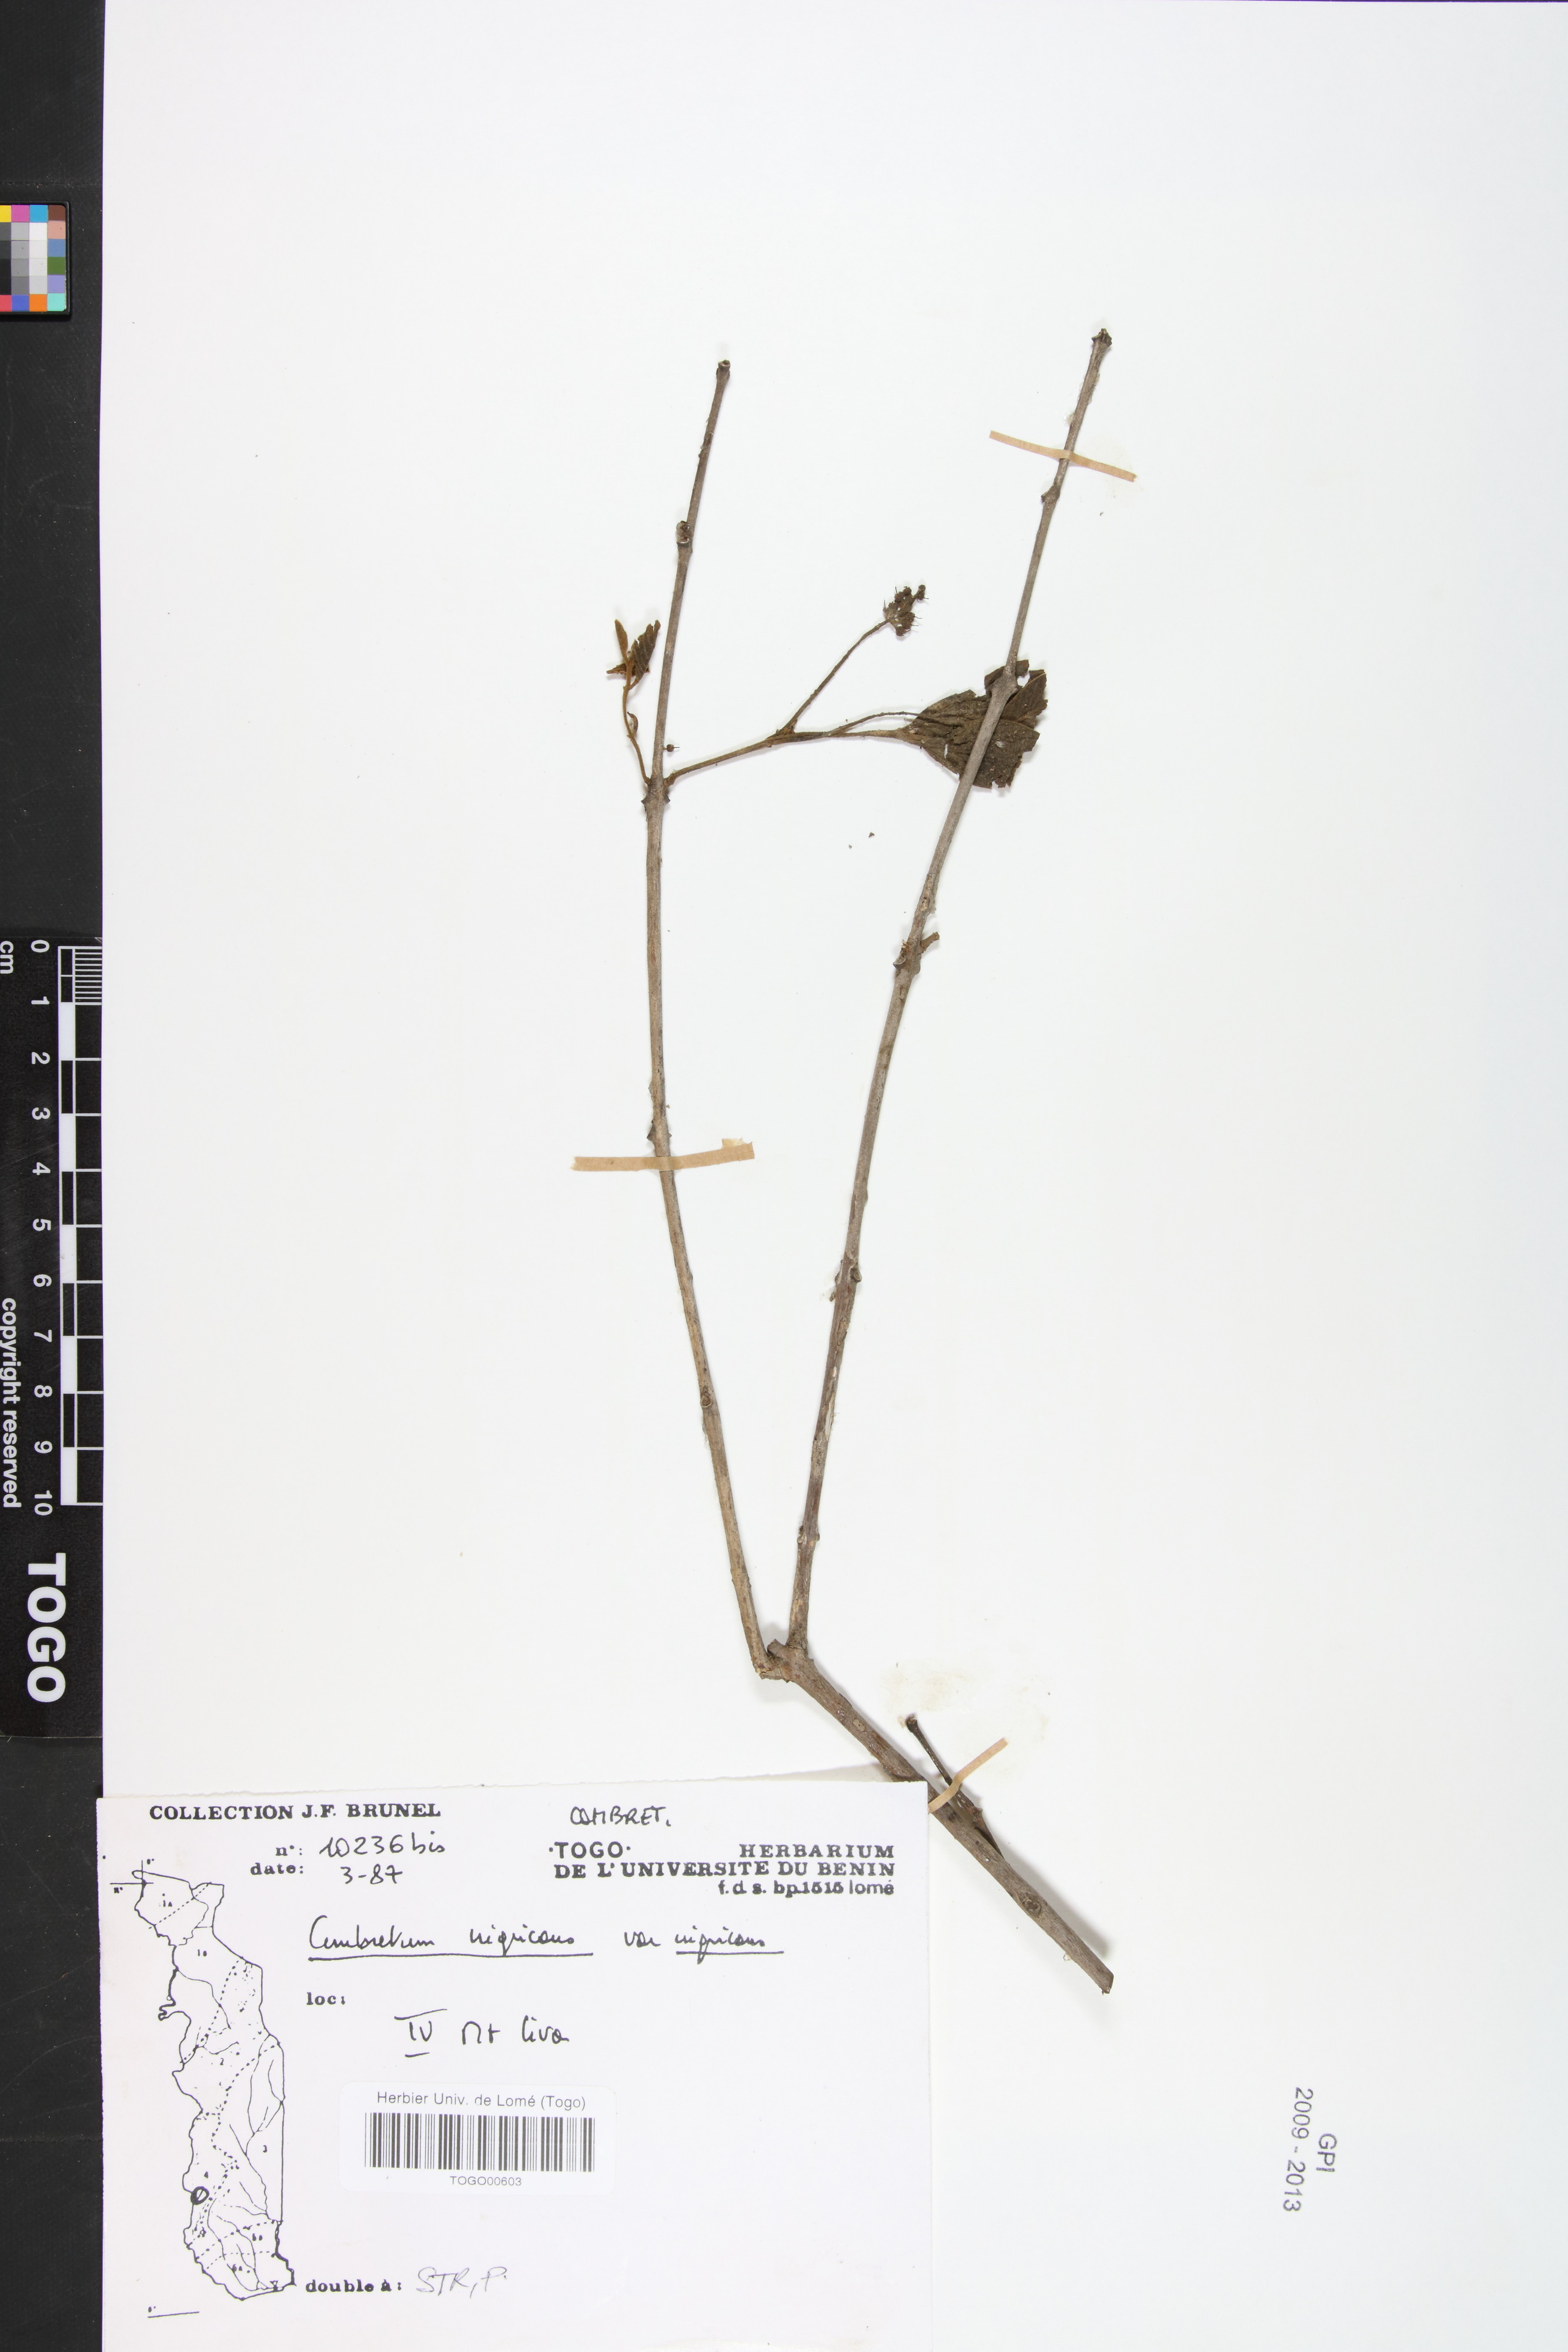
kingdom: Plantae
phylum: Tracheophyta
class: Magnoliopsida
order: Myrtales
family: Combretaceae
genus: Combretum
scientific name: Combretum nigricans
